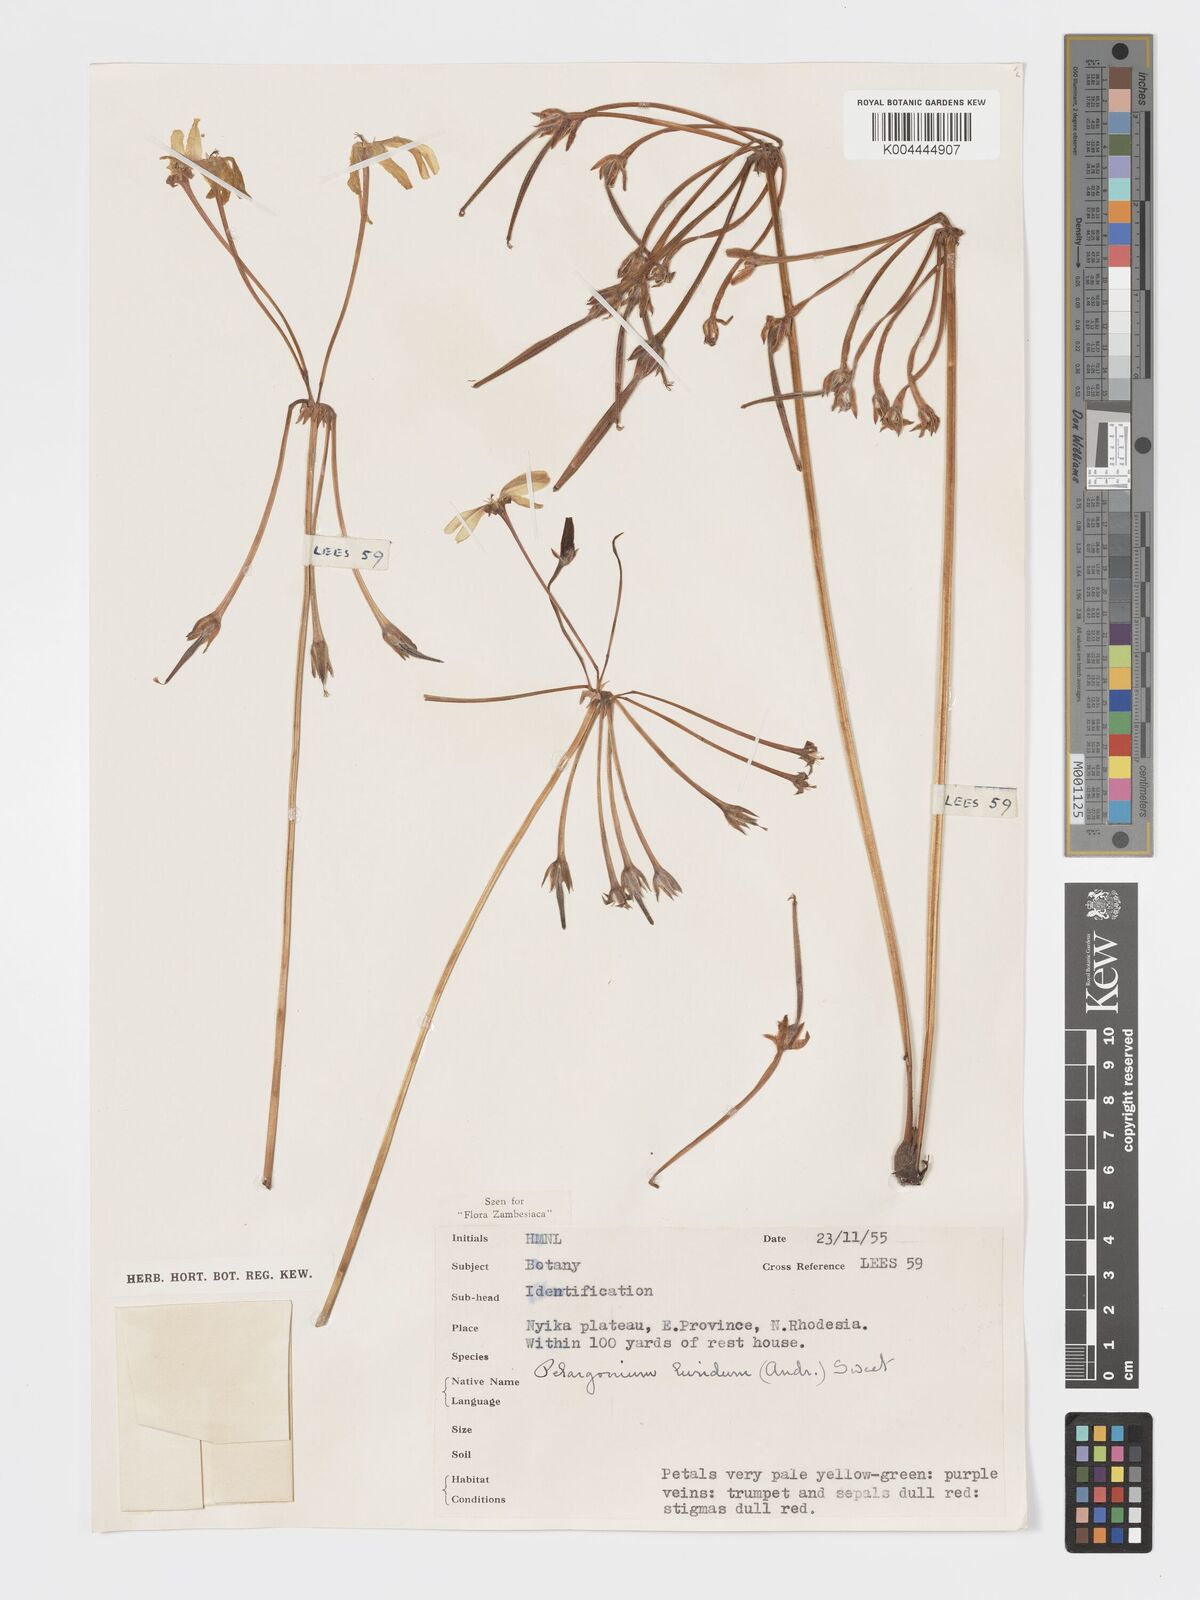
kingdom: Plantae
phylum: Tracheophyta
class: Magnoliopsida
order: Geraniales
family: Geraniaceae
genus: Pelargonium
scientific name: Pelargonium luridum
